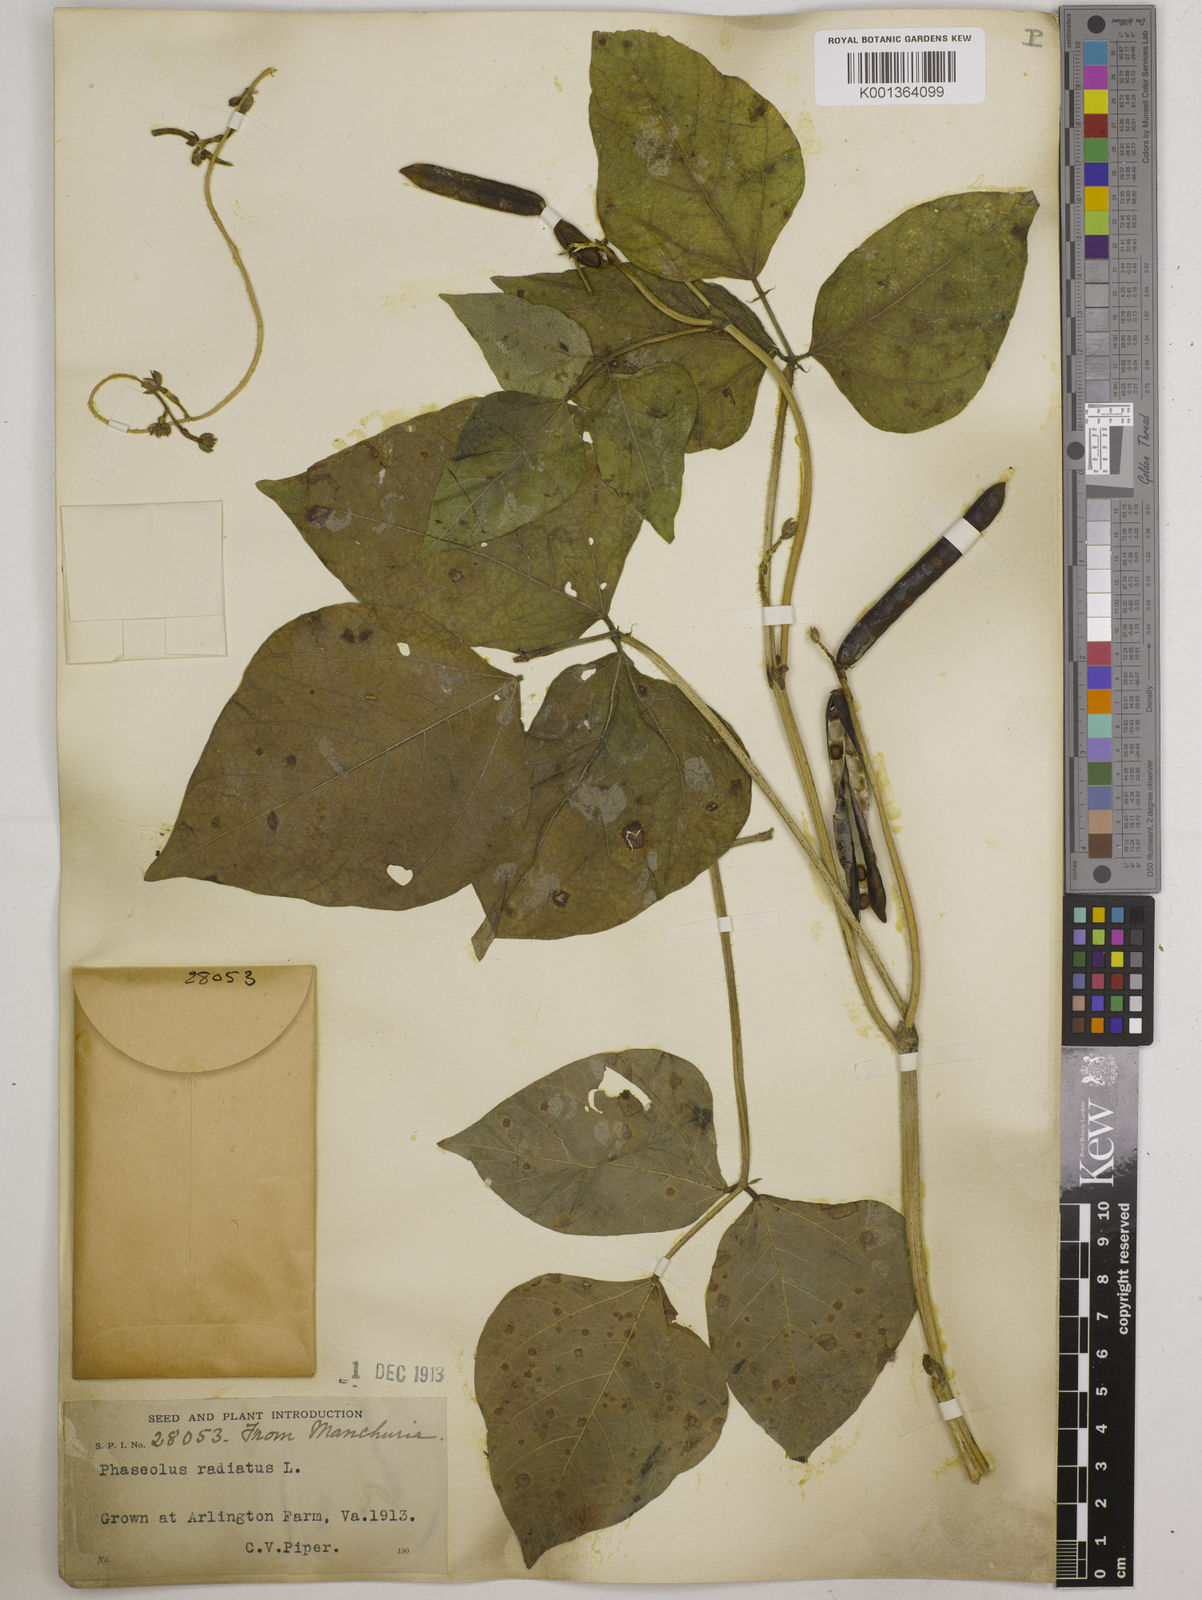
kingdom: Plantae
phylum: Tracheophyta
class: Magnoliopsida
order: Fabales
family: Fabaceae
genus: Vigna
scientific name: Vigna radiata
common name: Mung-bean
